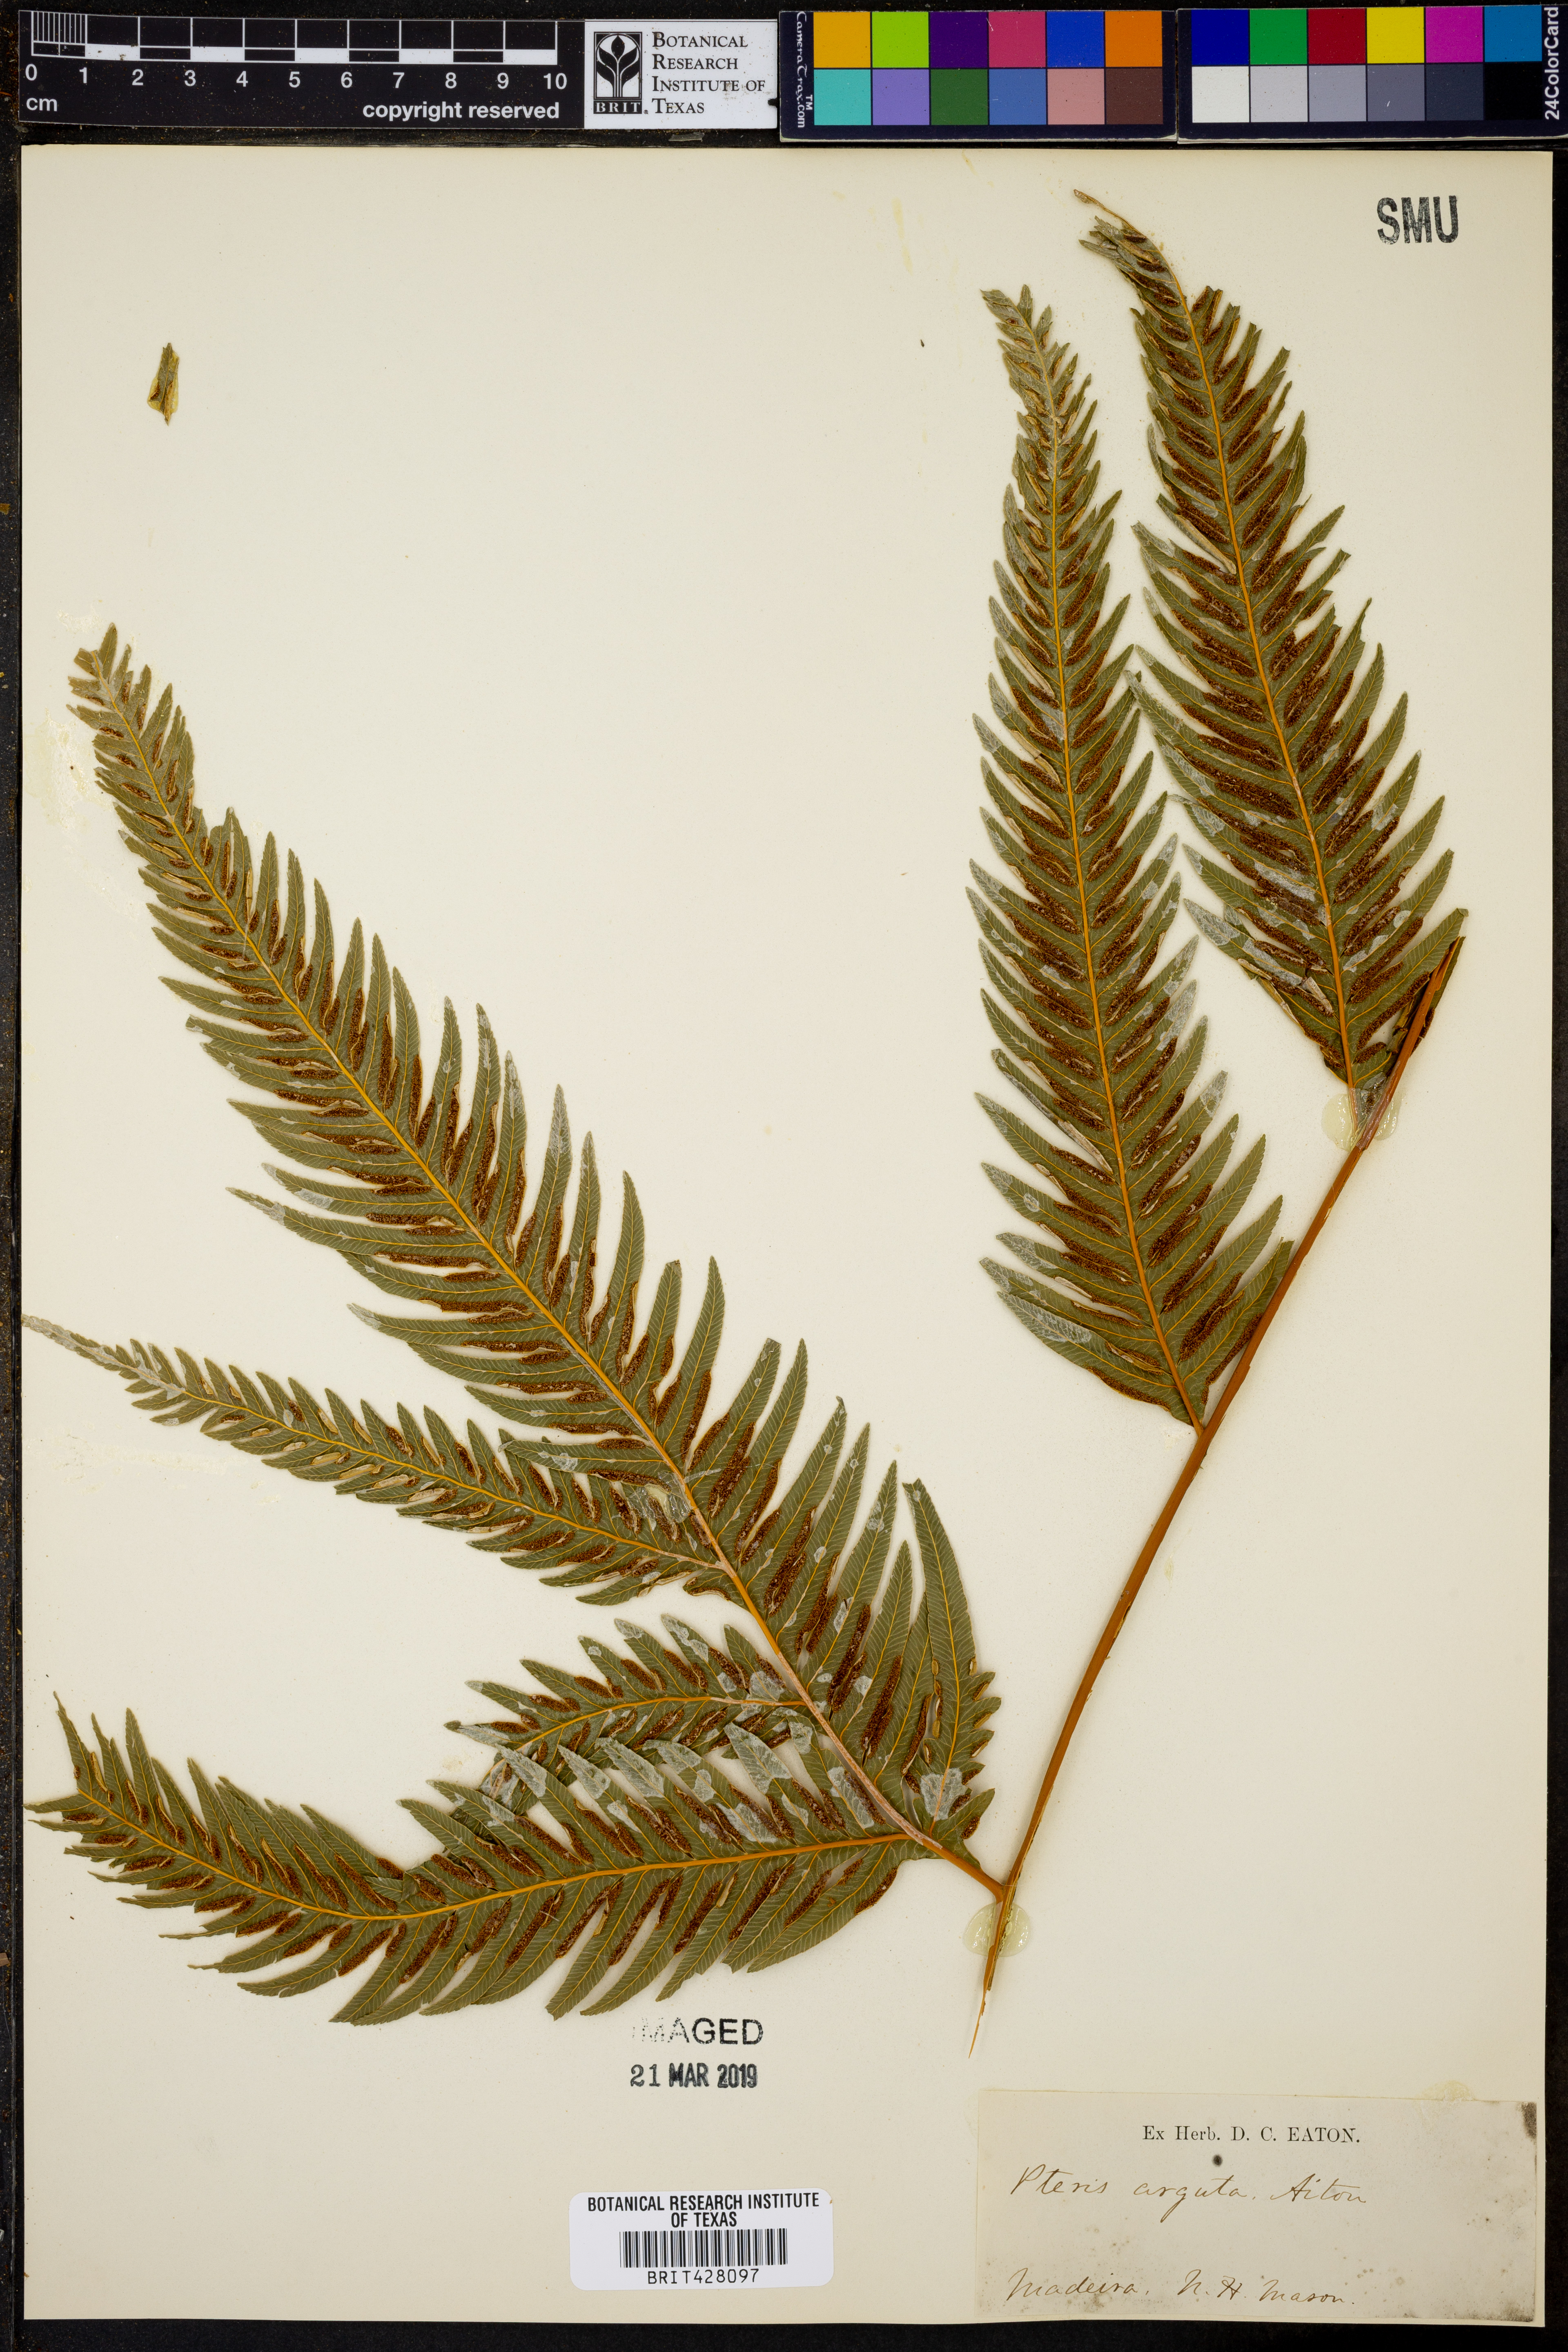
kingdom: Plantae
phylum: Tracheophyta
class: Polypodiopsida
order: Polypodiales
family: Pteridaceae
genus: Pteris
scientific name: Pteris dentata
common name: Toothed brake
